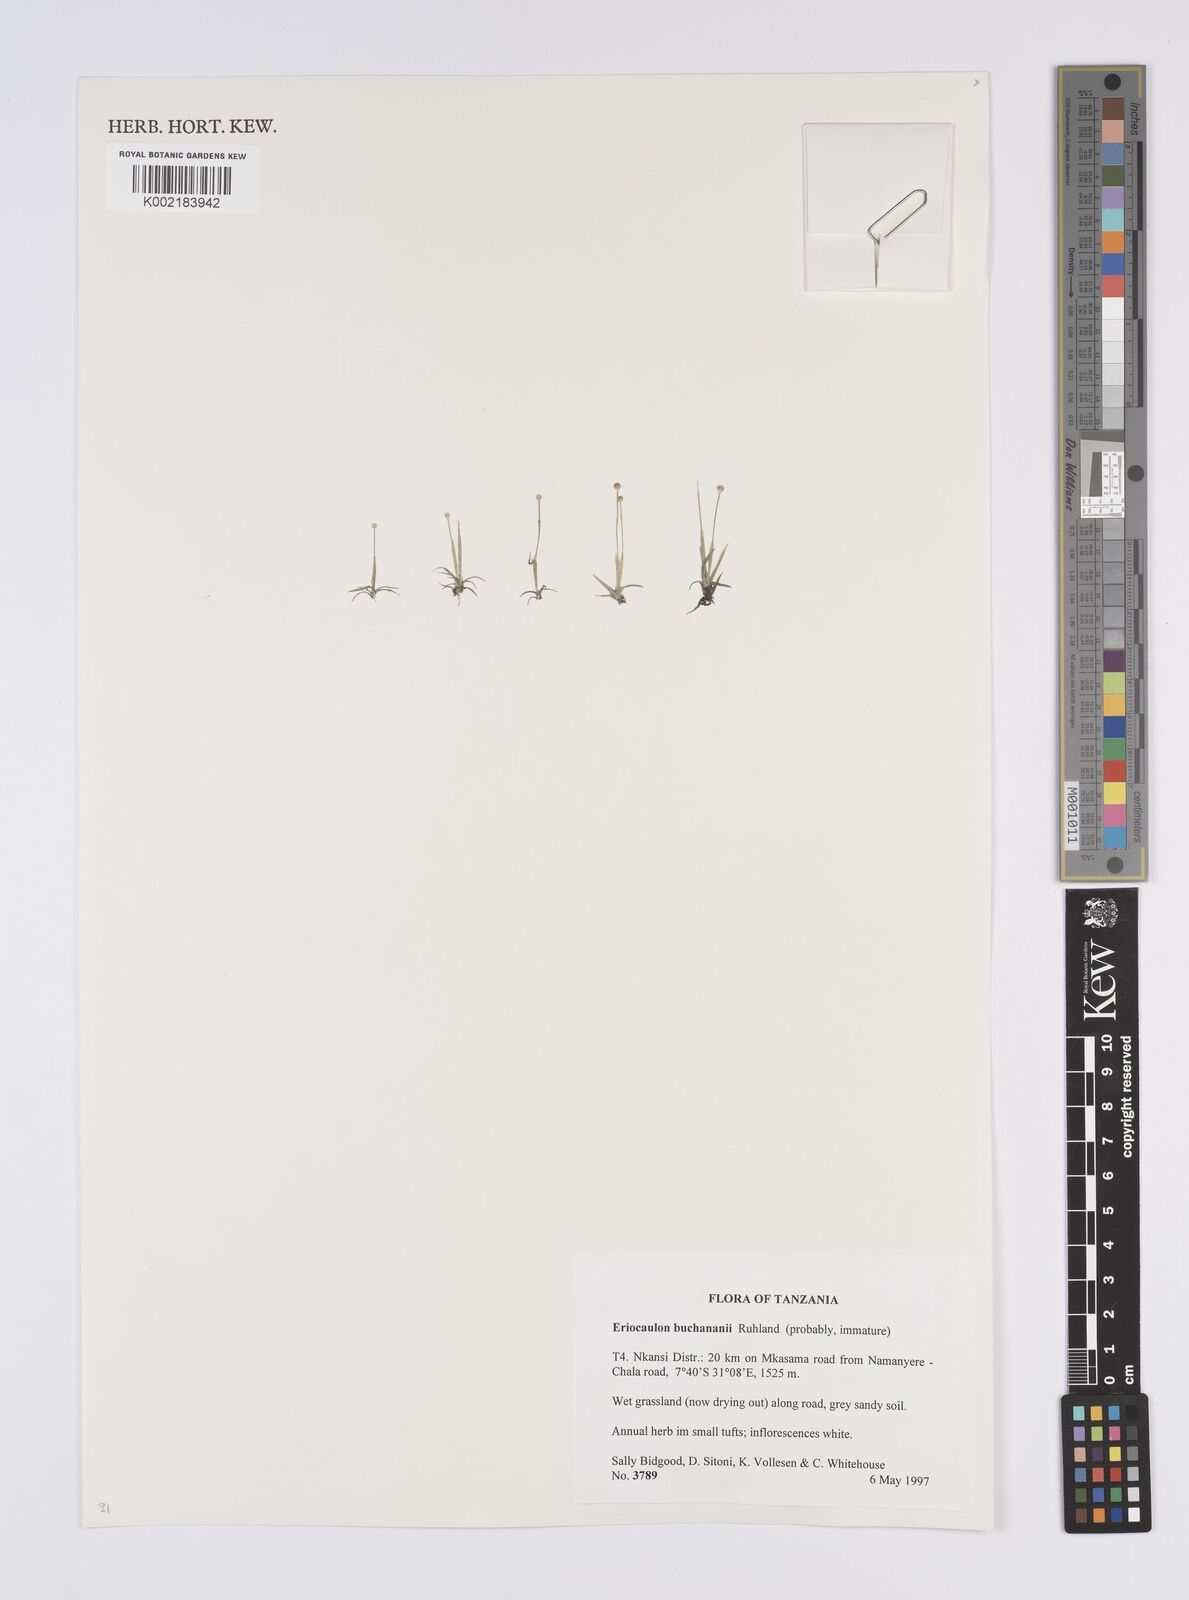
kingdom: Plantae
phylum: Tracheophyta
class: Liliopsida
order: Poales
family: Eriocaulaceae
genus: Eriocaulon
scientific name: Eriocaulon buchananii
